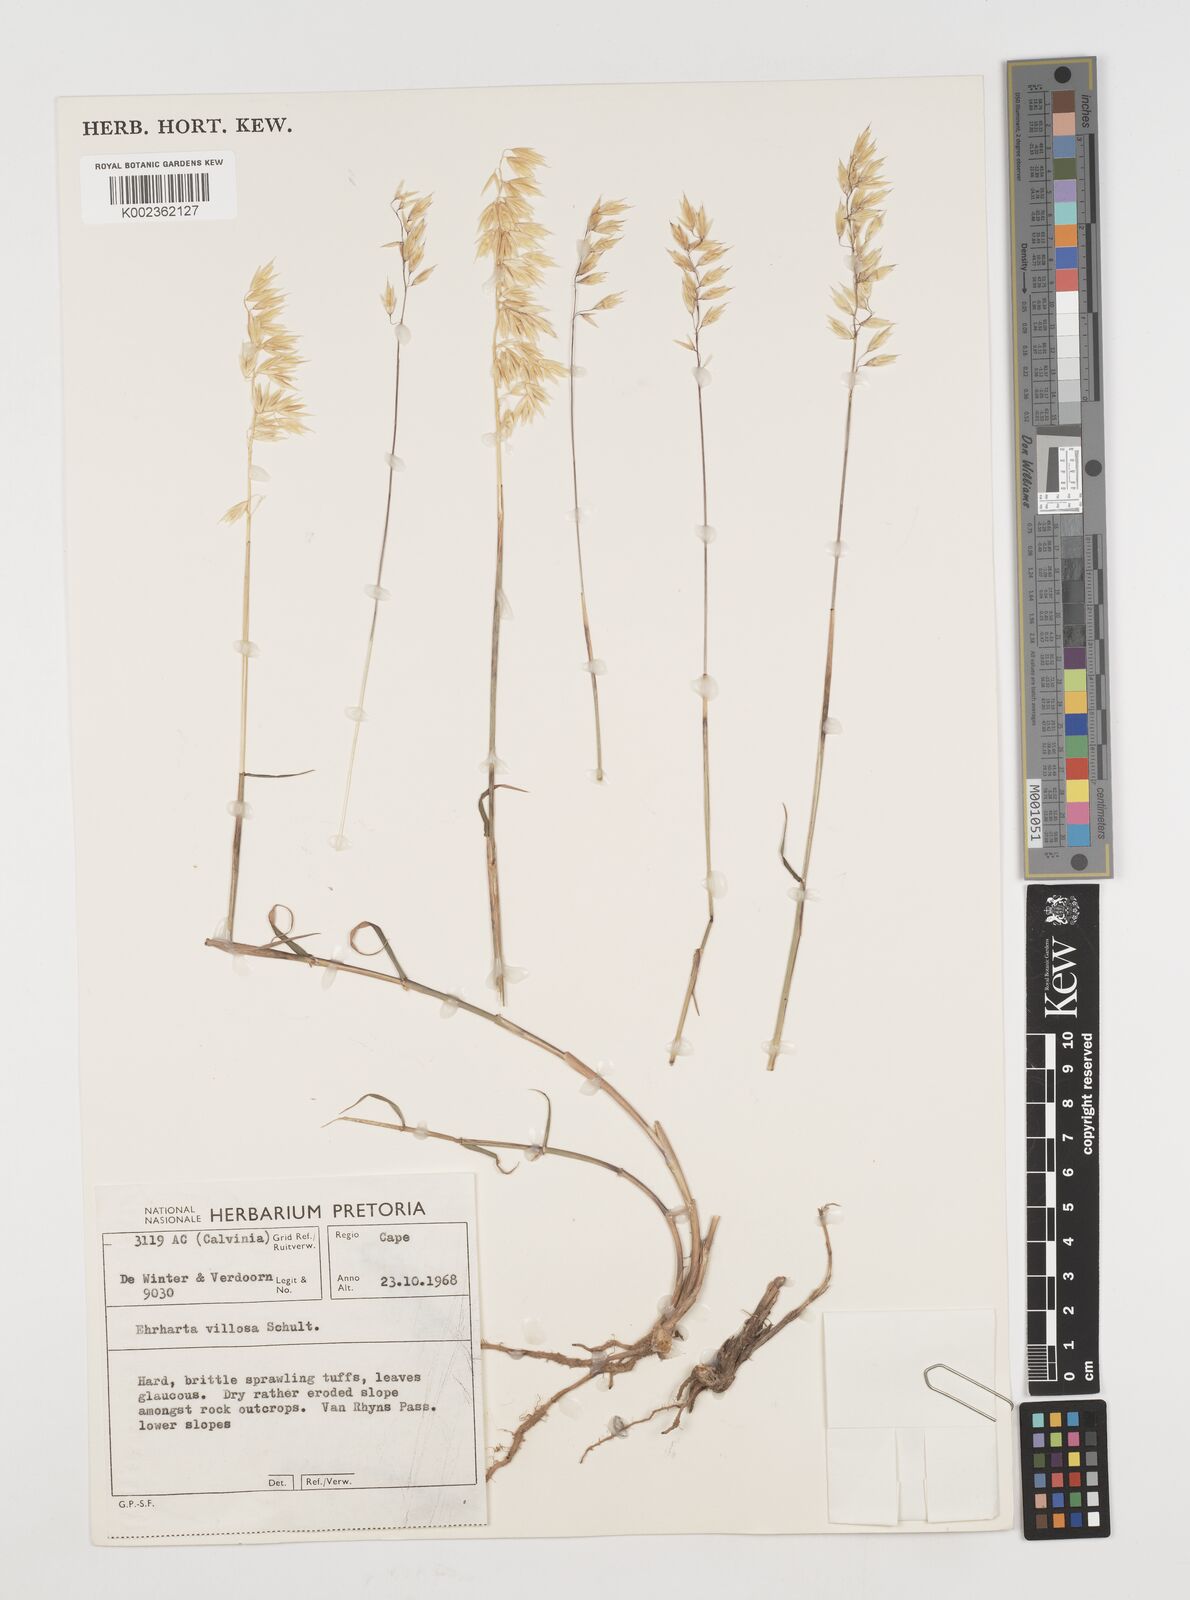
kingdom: Plantae
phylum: Tracheophyta
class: Liliopsida
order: Poales
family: Poaceae
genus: Ehrharta
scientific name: Ehrharta barbinodis
